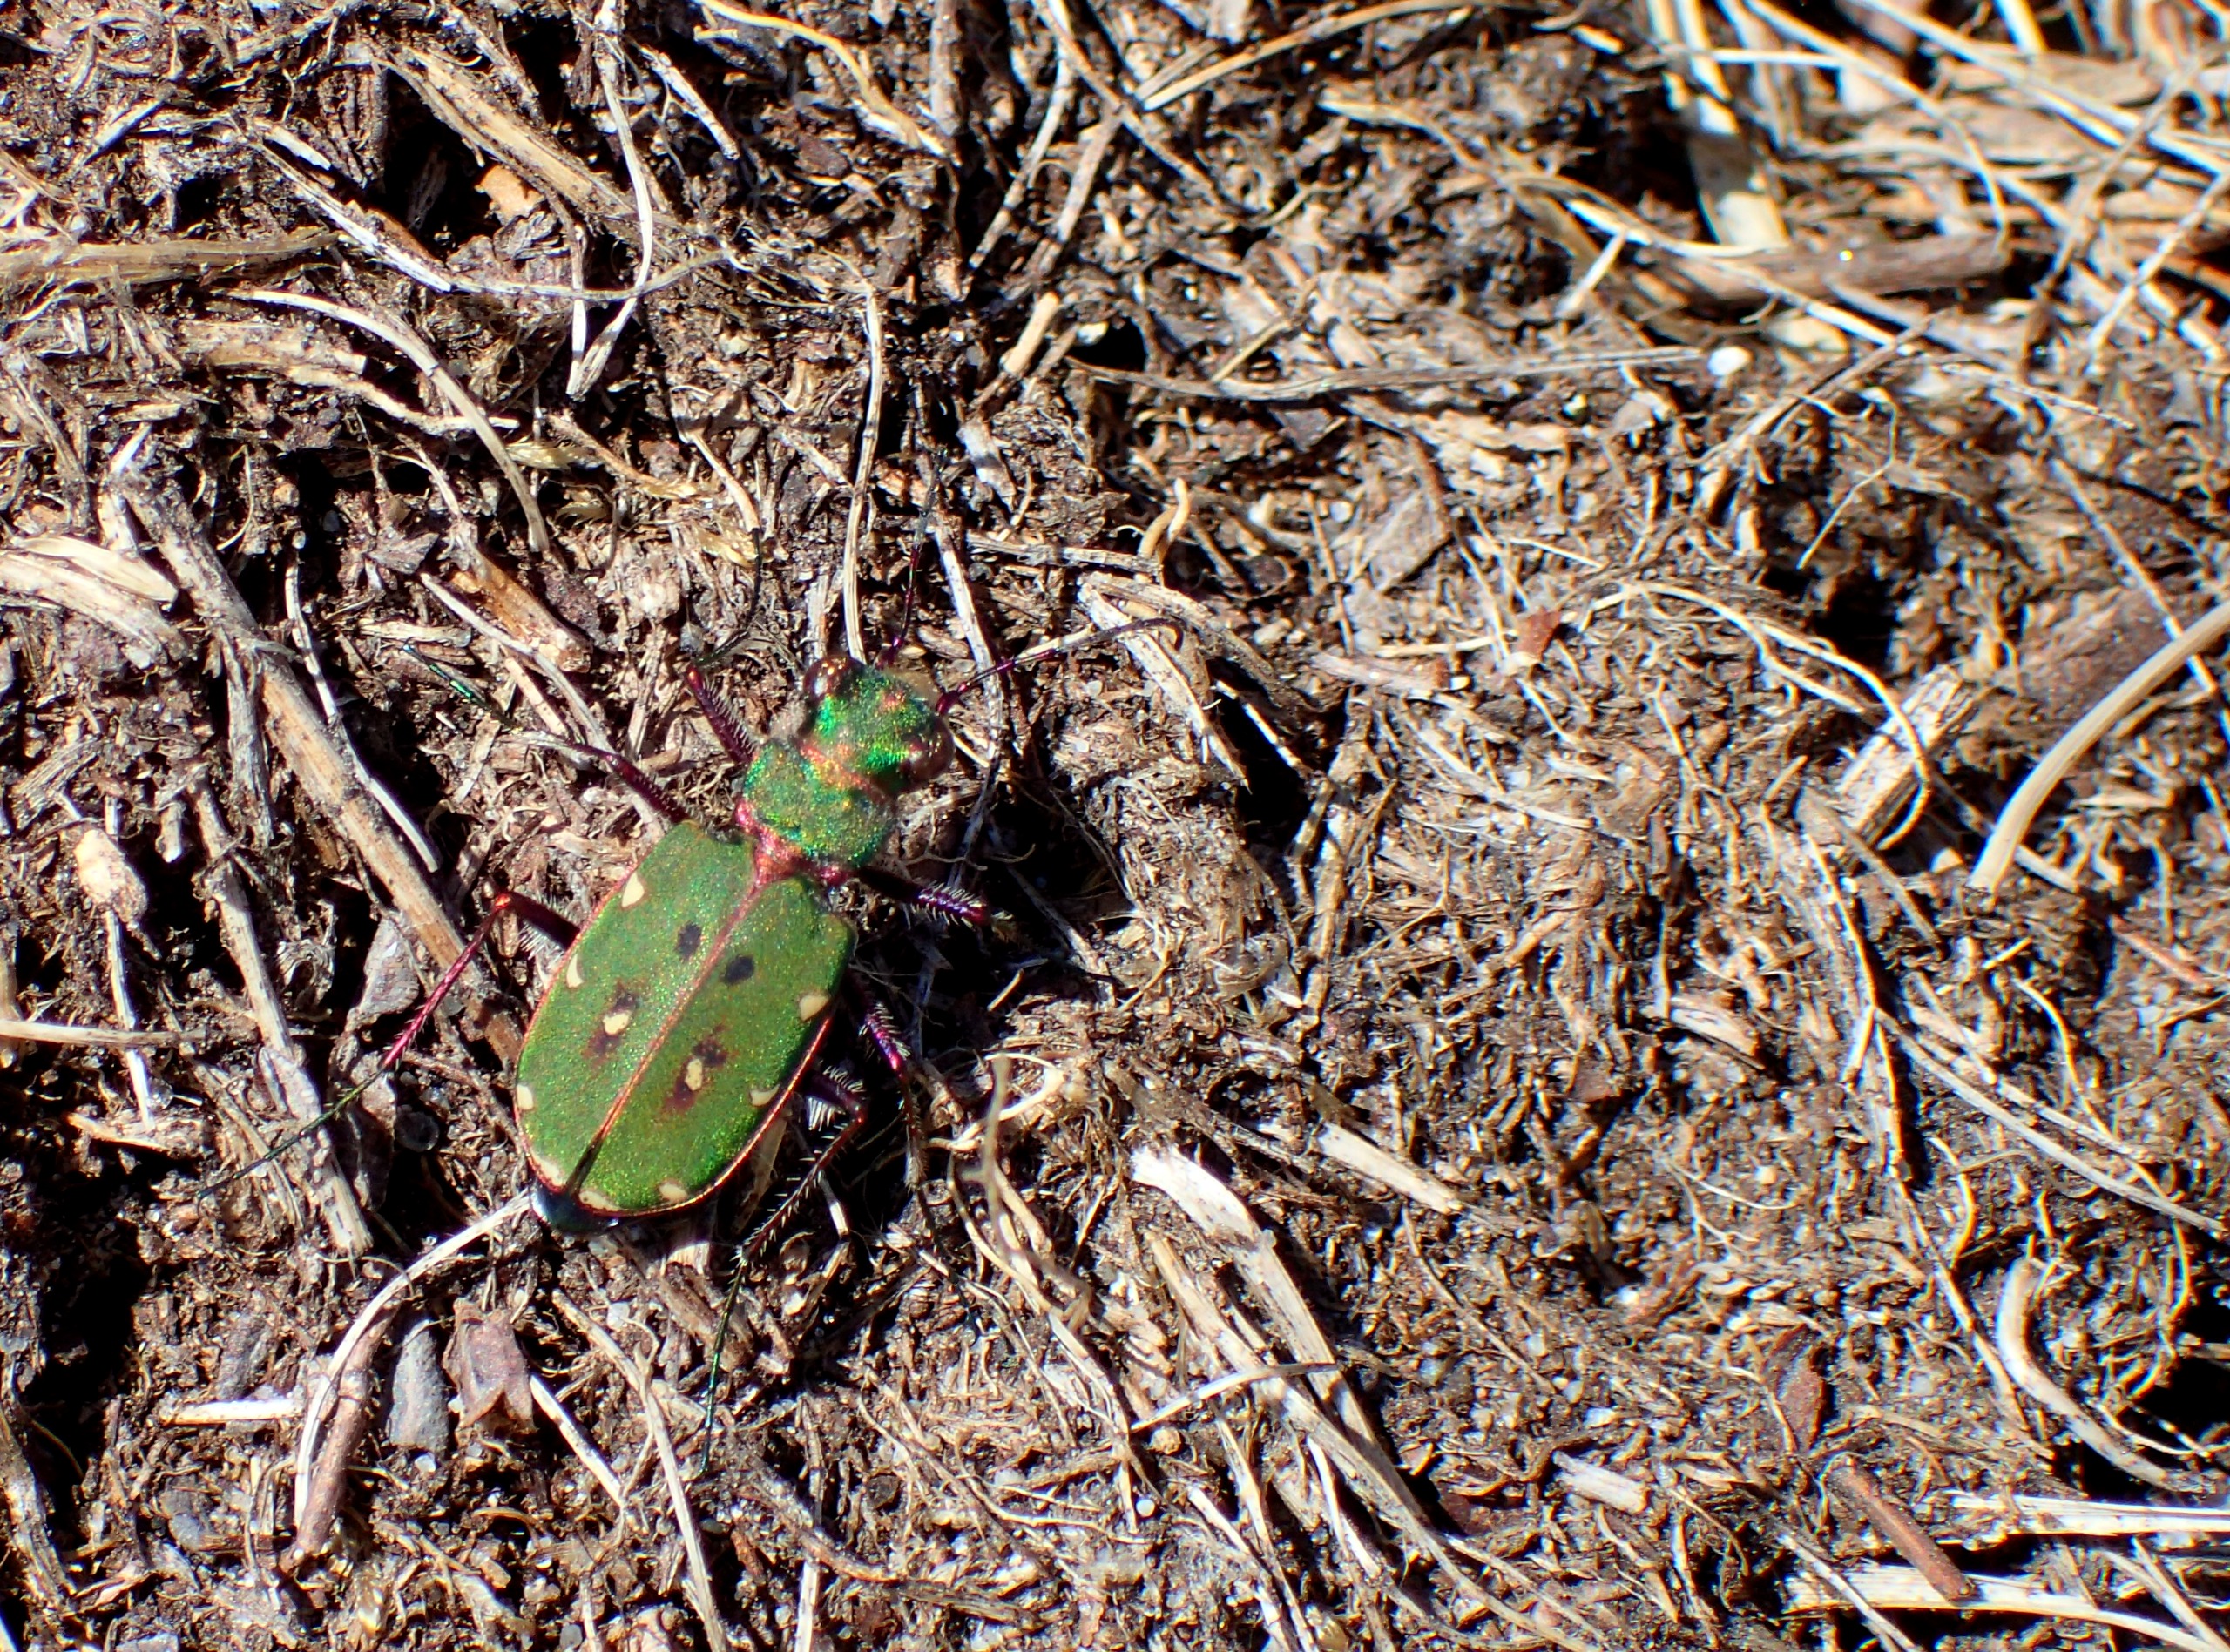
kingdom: Animalia
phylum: Arthropoda
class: Insecta
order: Coleoptera
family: Carabidae
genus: Cicindela
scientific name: Cicindela campestris
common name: Grøn sandspringer
